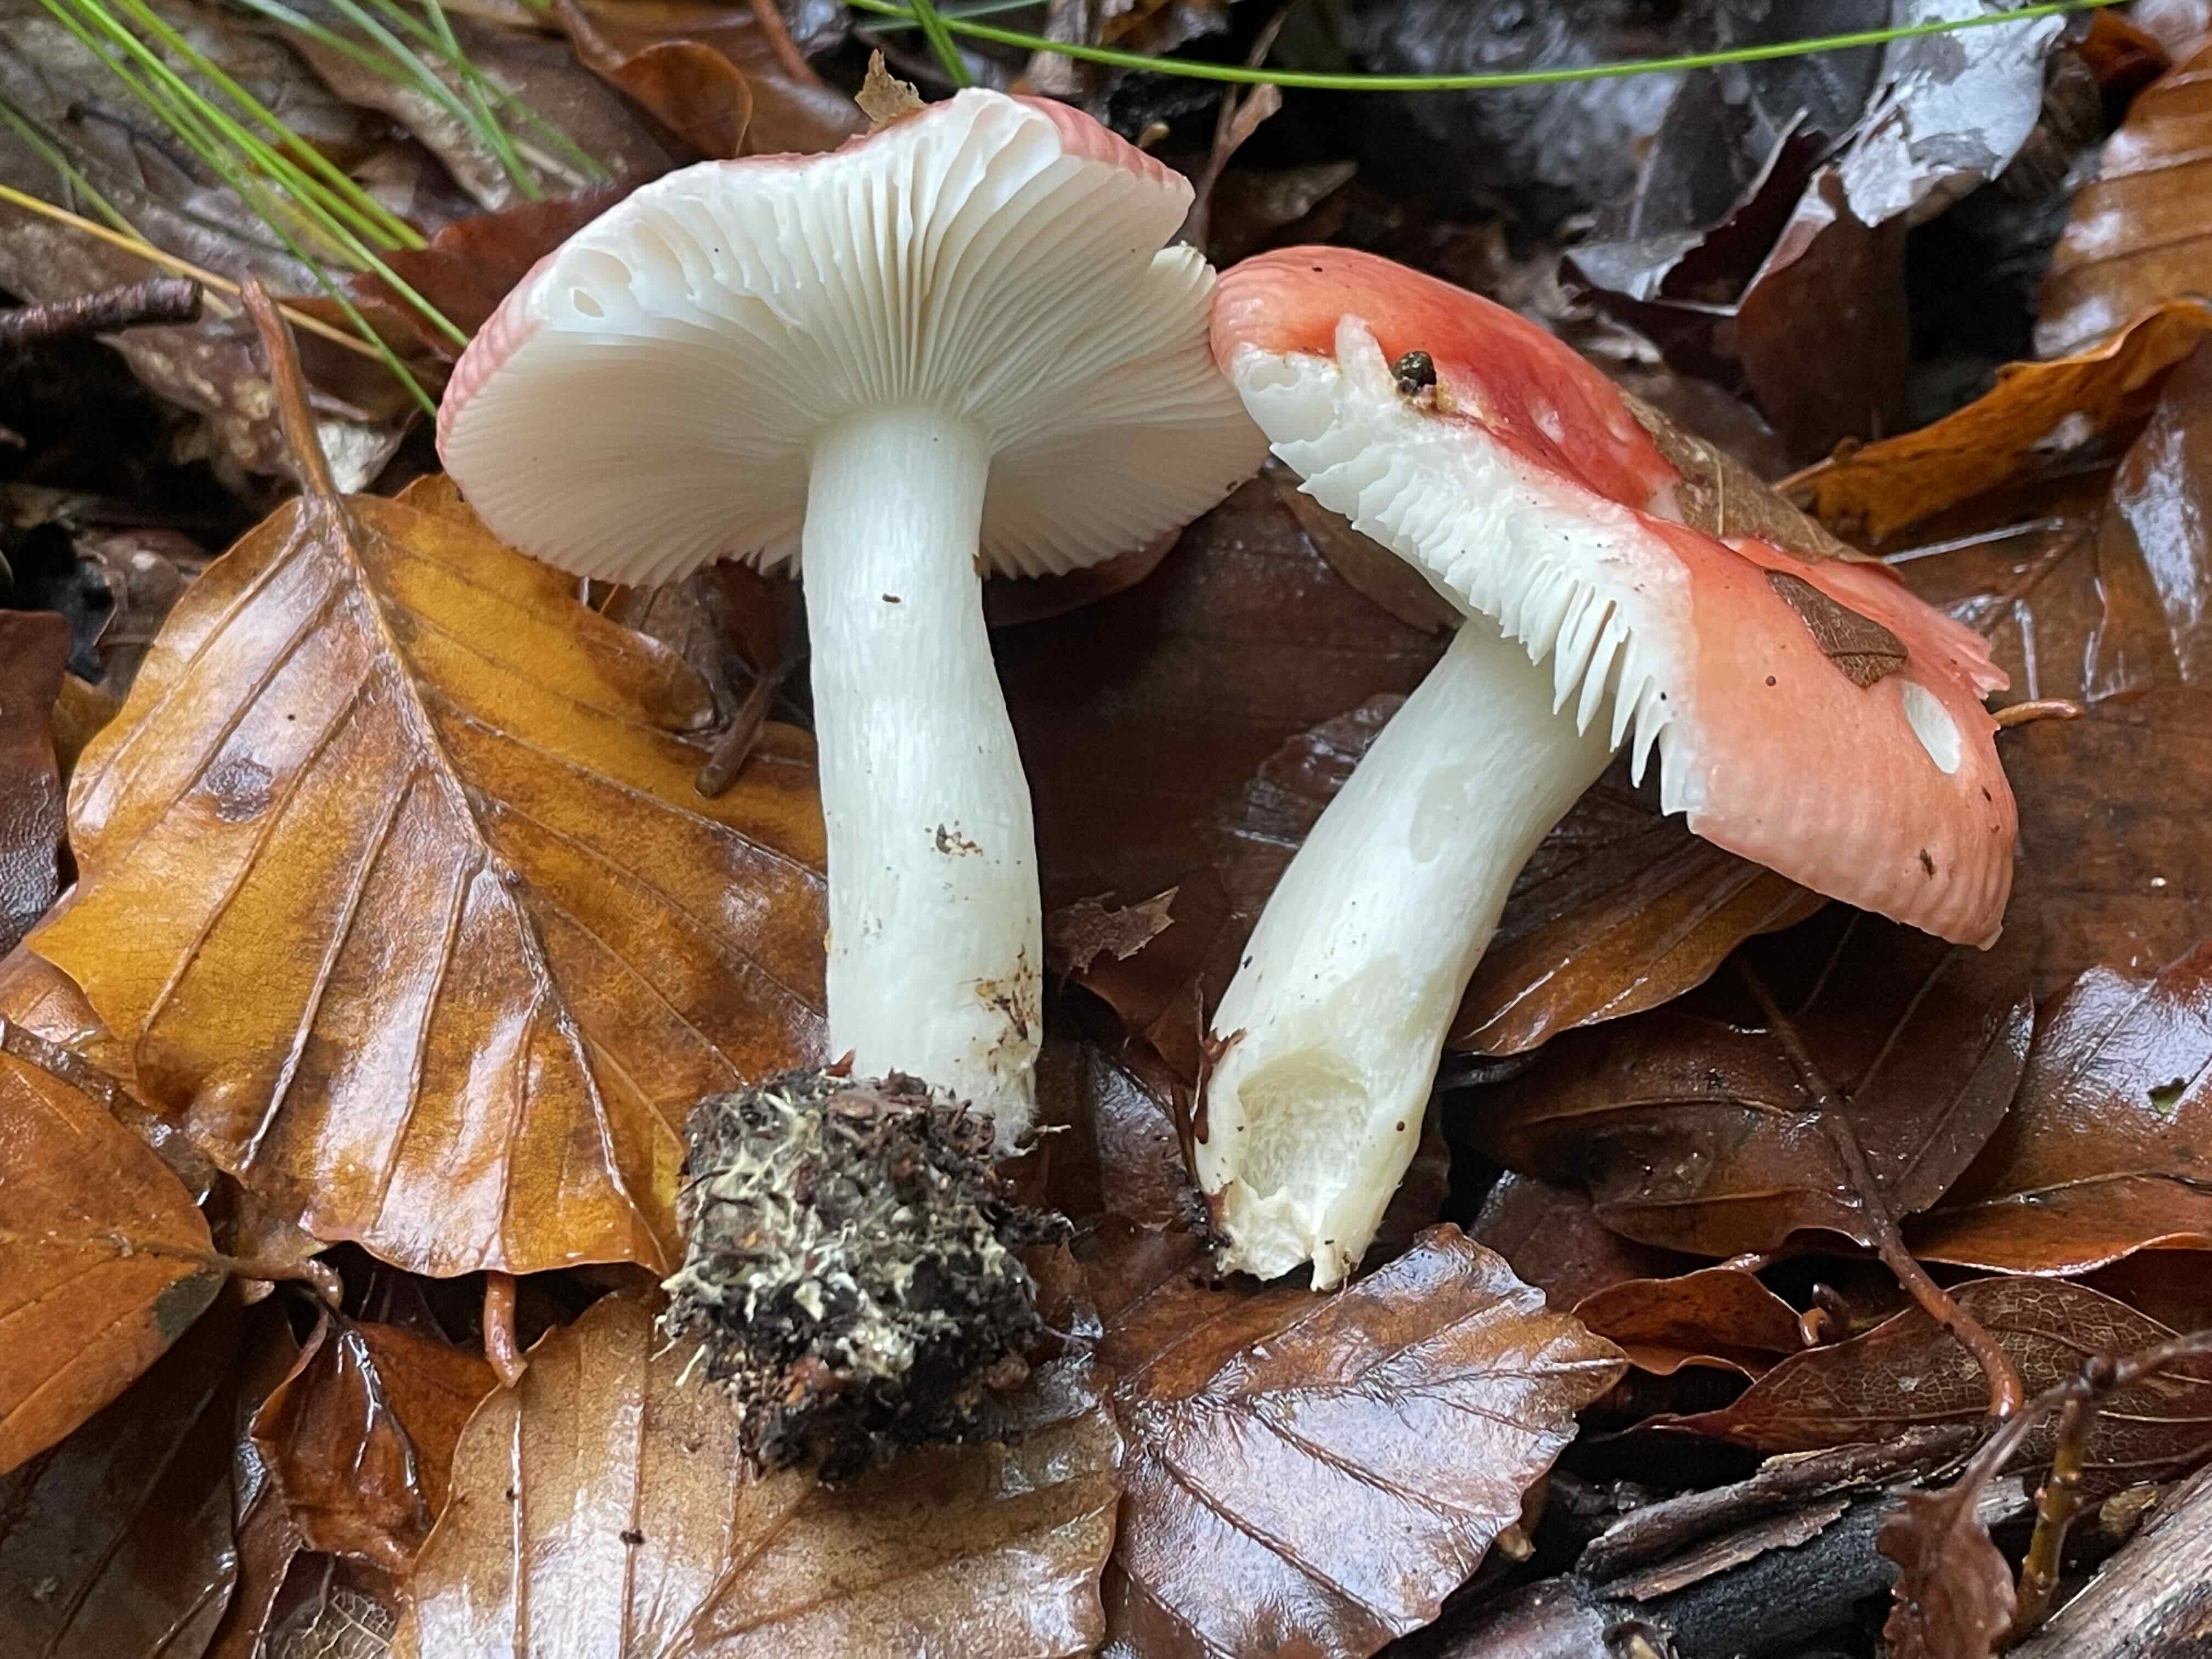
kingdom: Fungi
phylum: Basidiomycota
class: Agaricomycetes
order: Russulales
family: Russulaceae
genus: Russula
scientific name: Russula nobilis
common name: lille gift-skørhat
